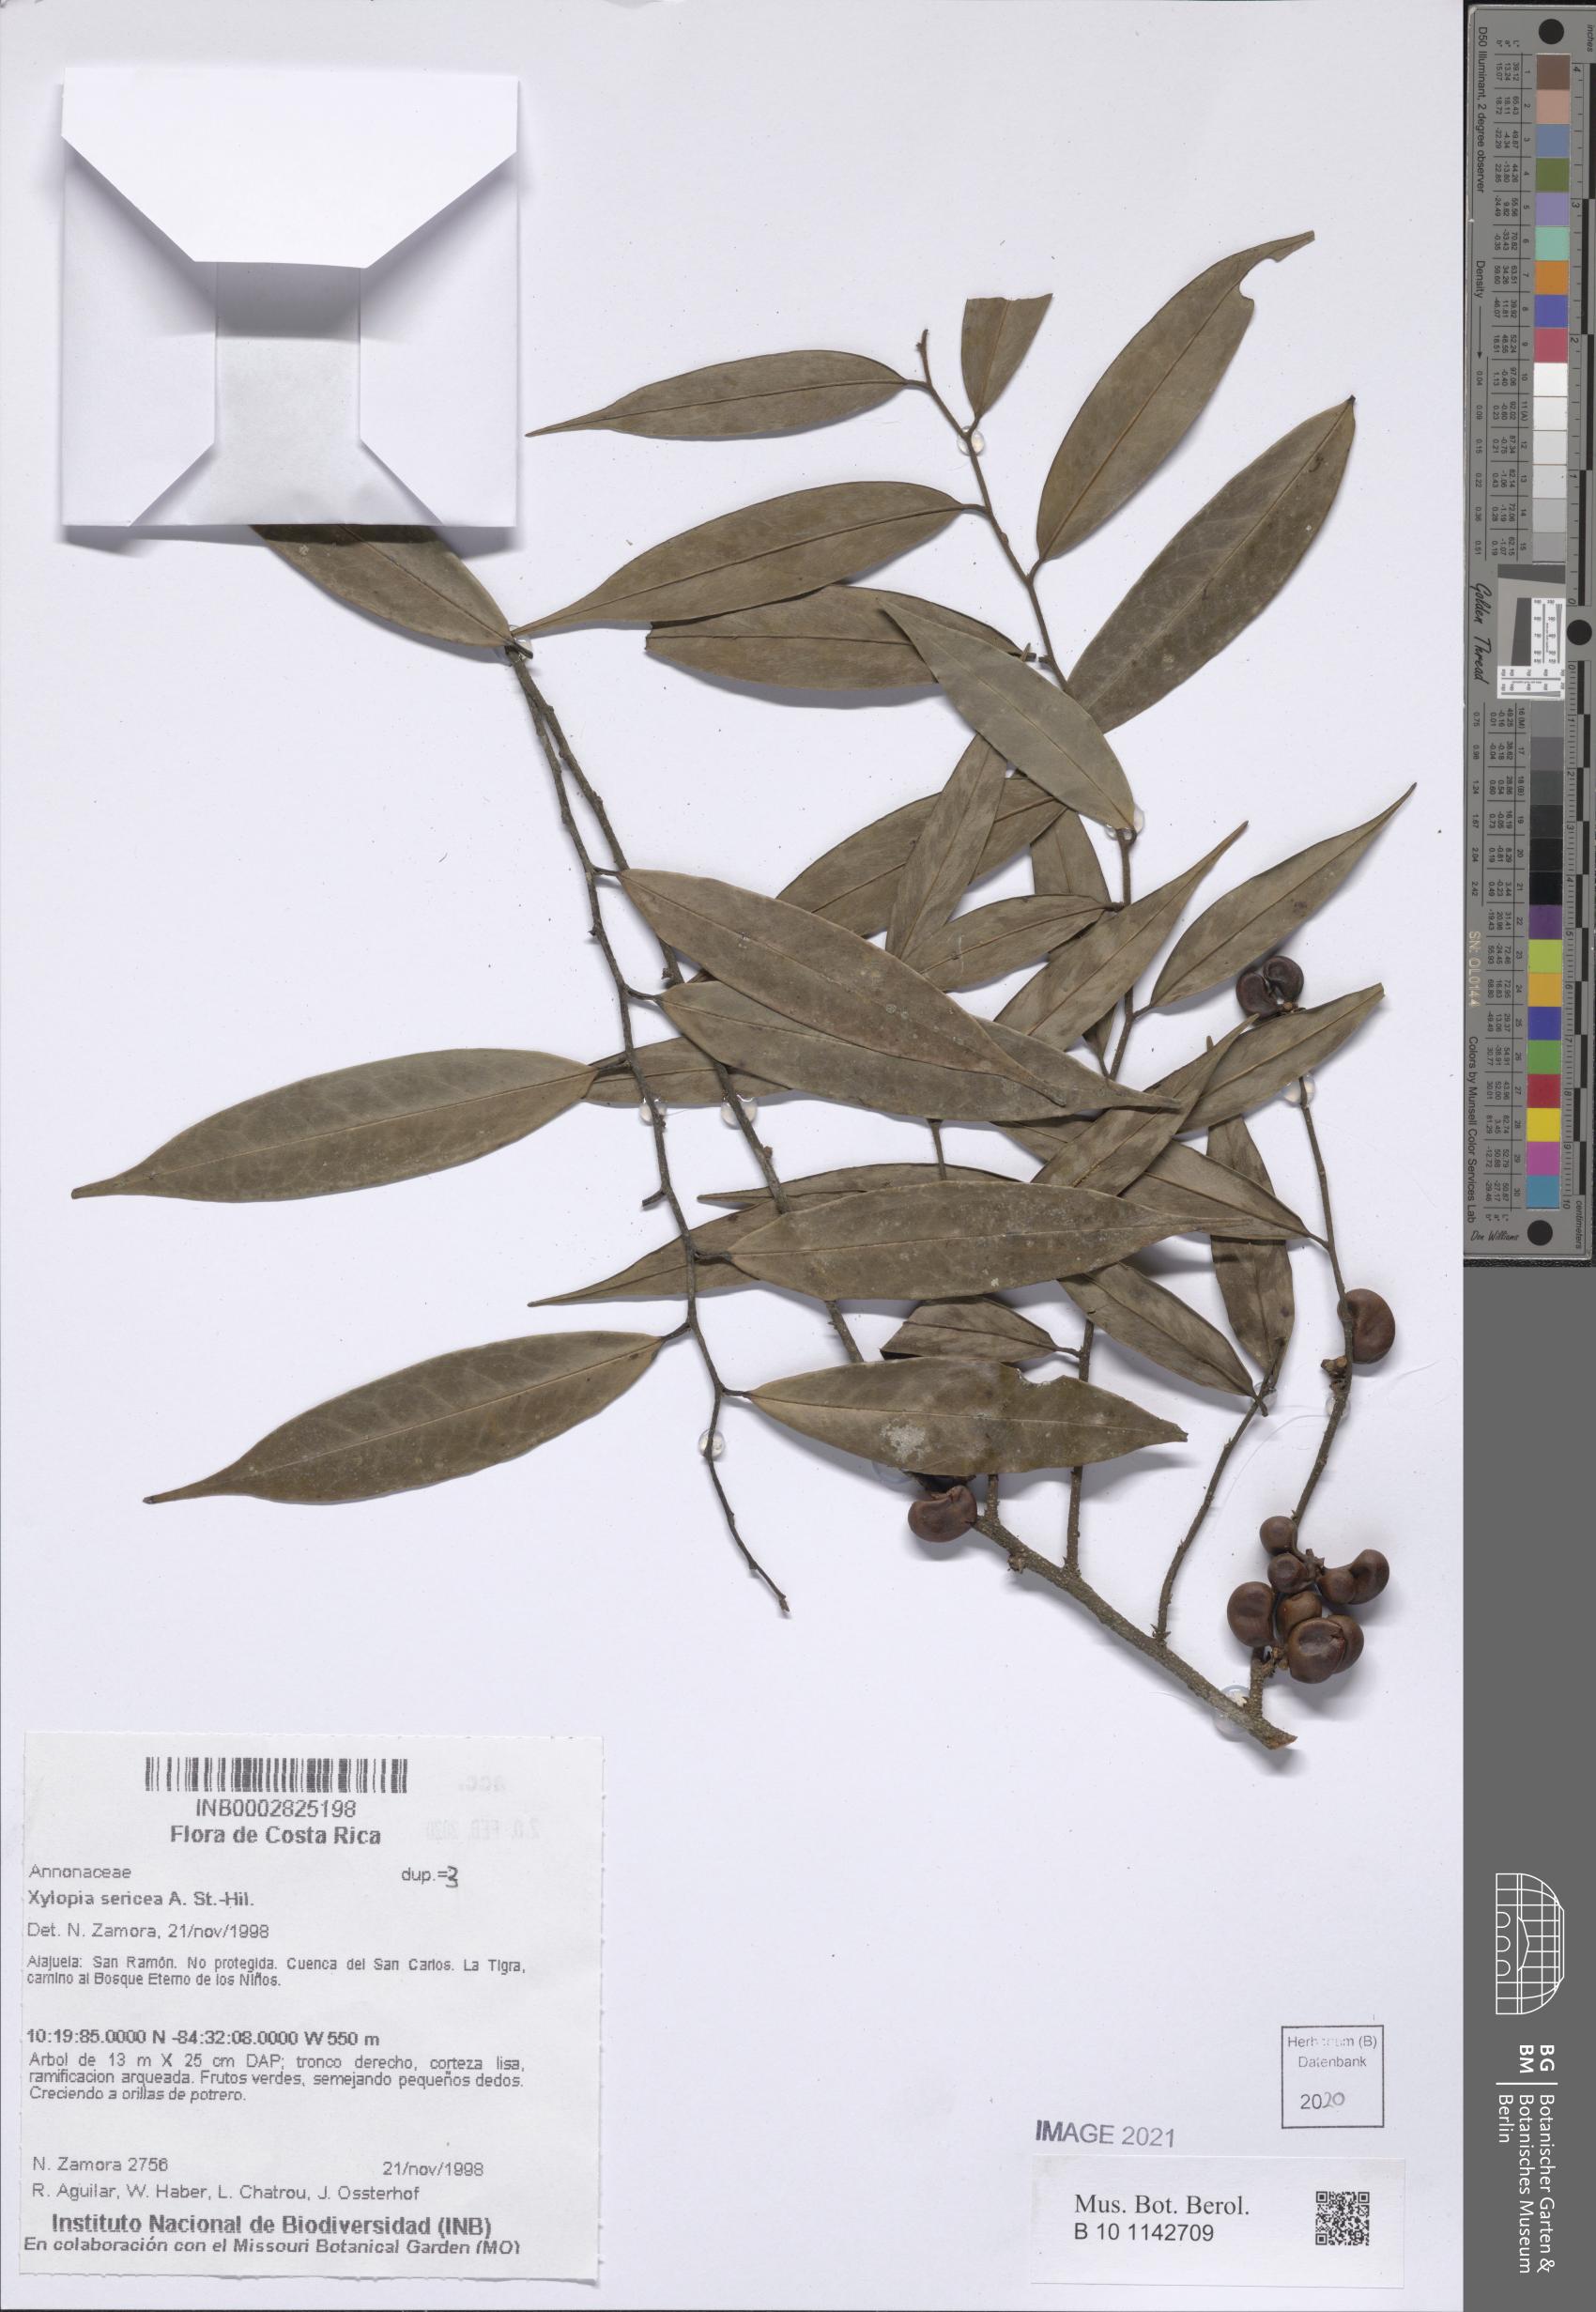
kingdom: Plantae
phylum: Tracheophyta
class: Magnoliopsida
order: Magnoliales
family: Annonaceae
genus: Xylopia
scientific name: Xylopia sericea
